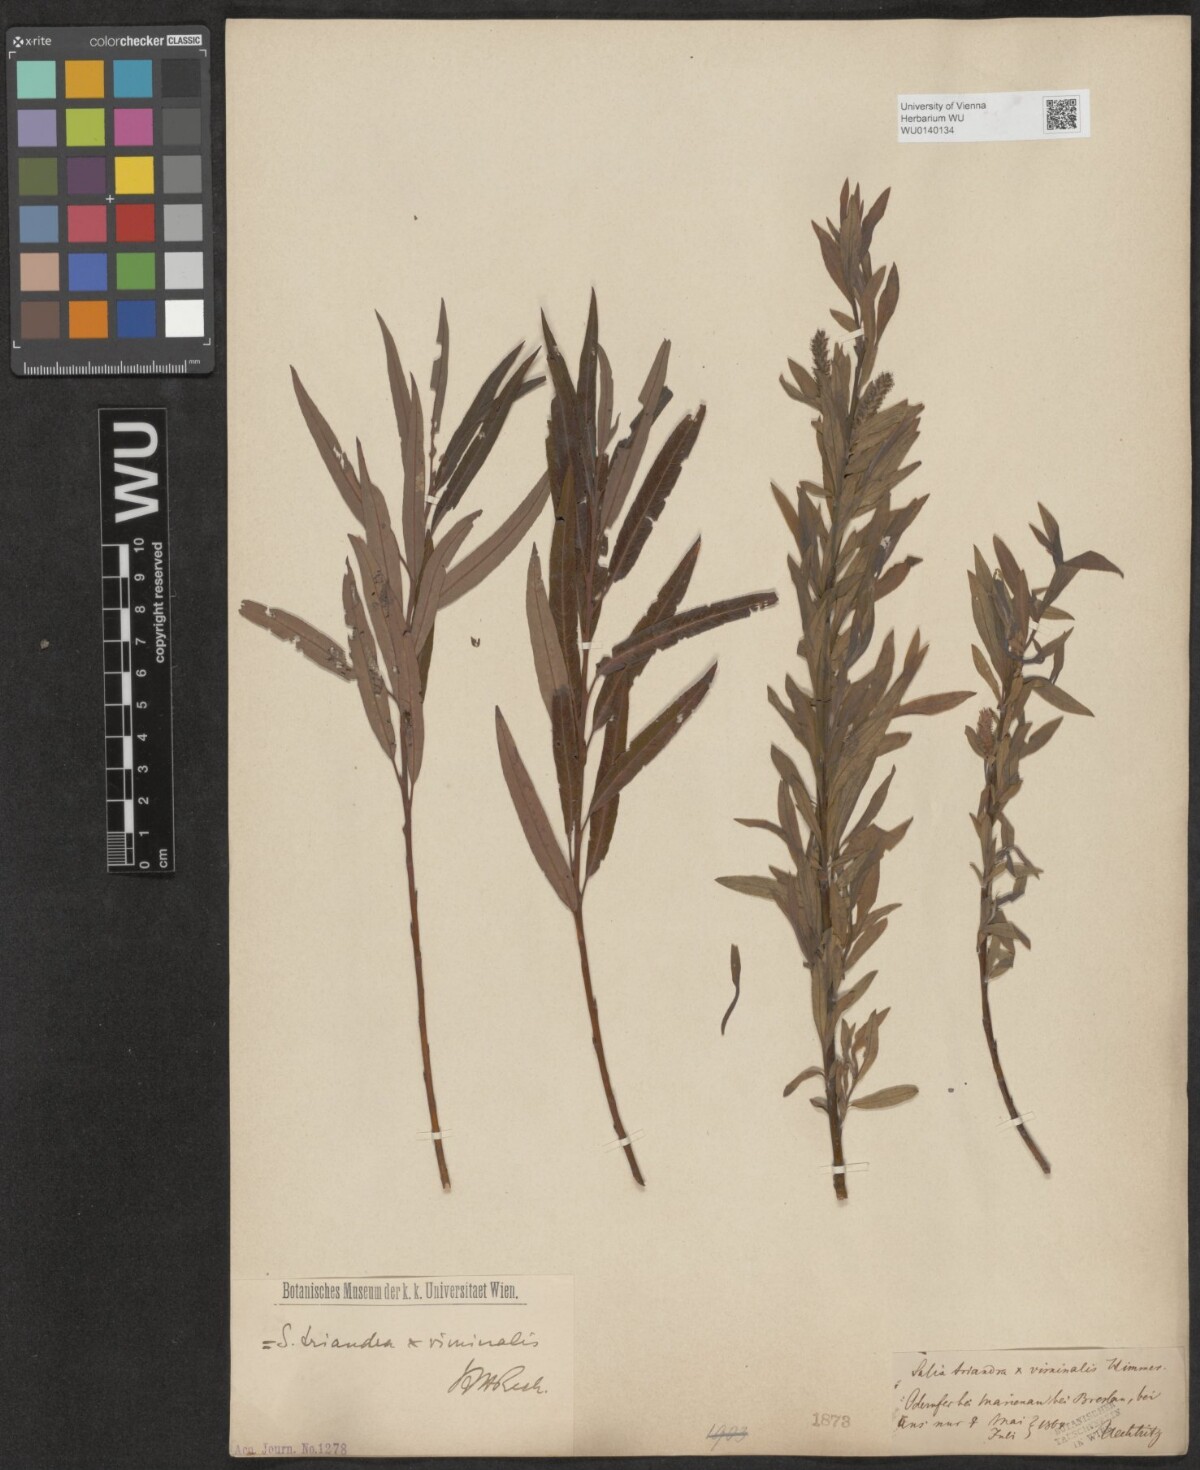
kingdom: Plantae
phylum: Tracheophyta
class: Magnoliopsida
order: Malpighiales
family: Salicaceae
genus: Salix
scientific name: Salix mollissima
